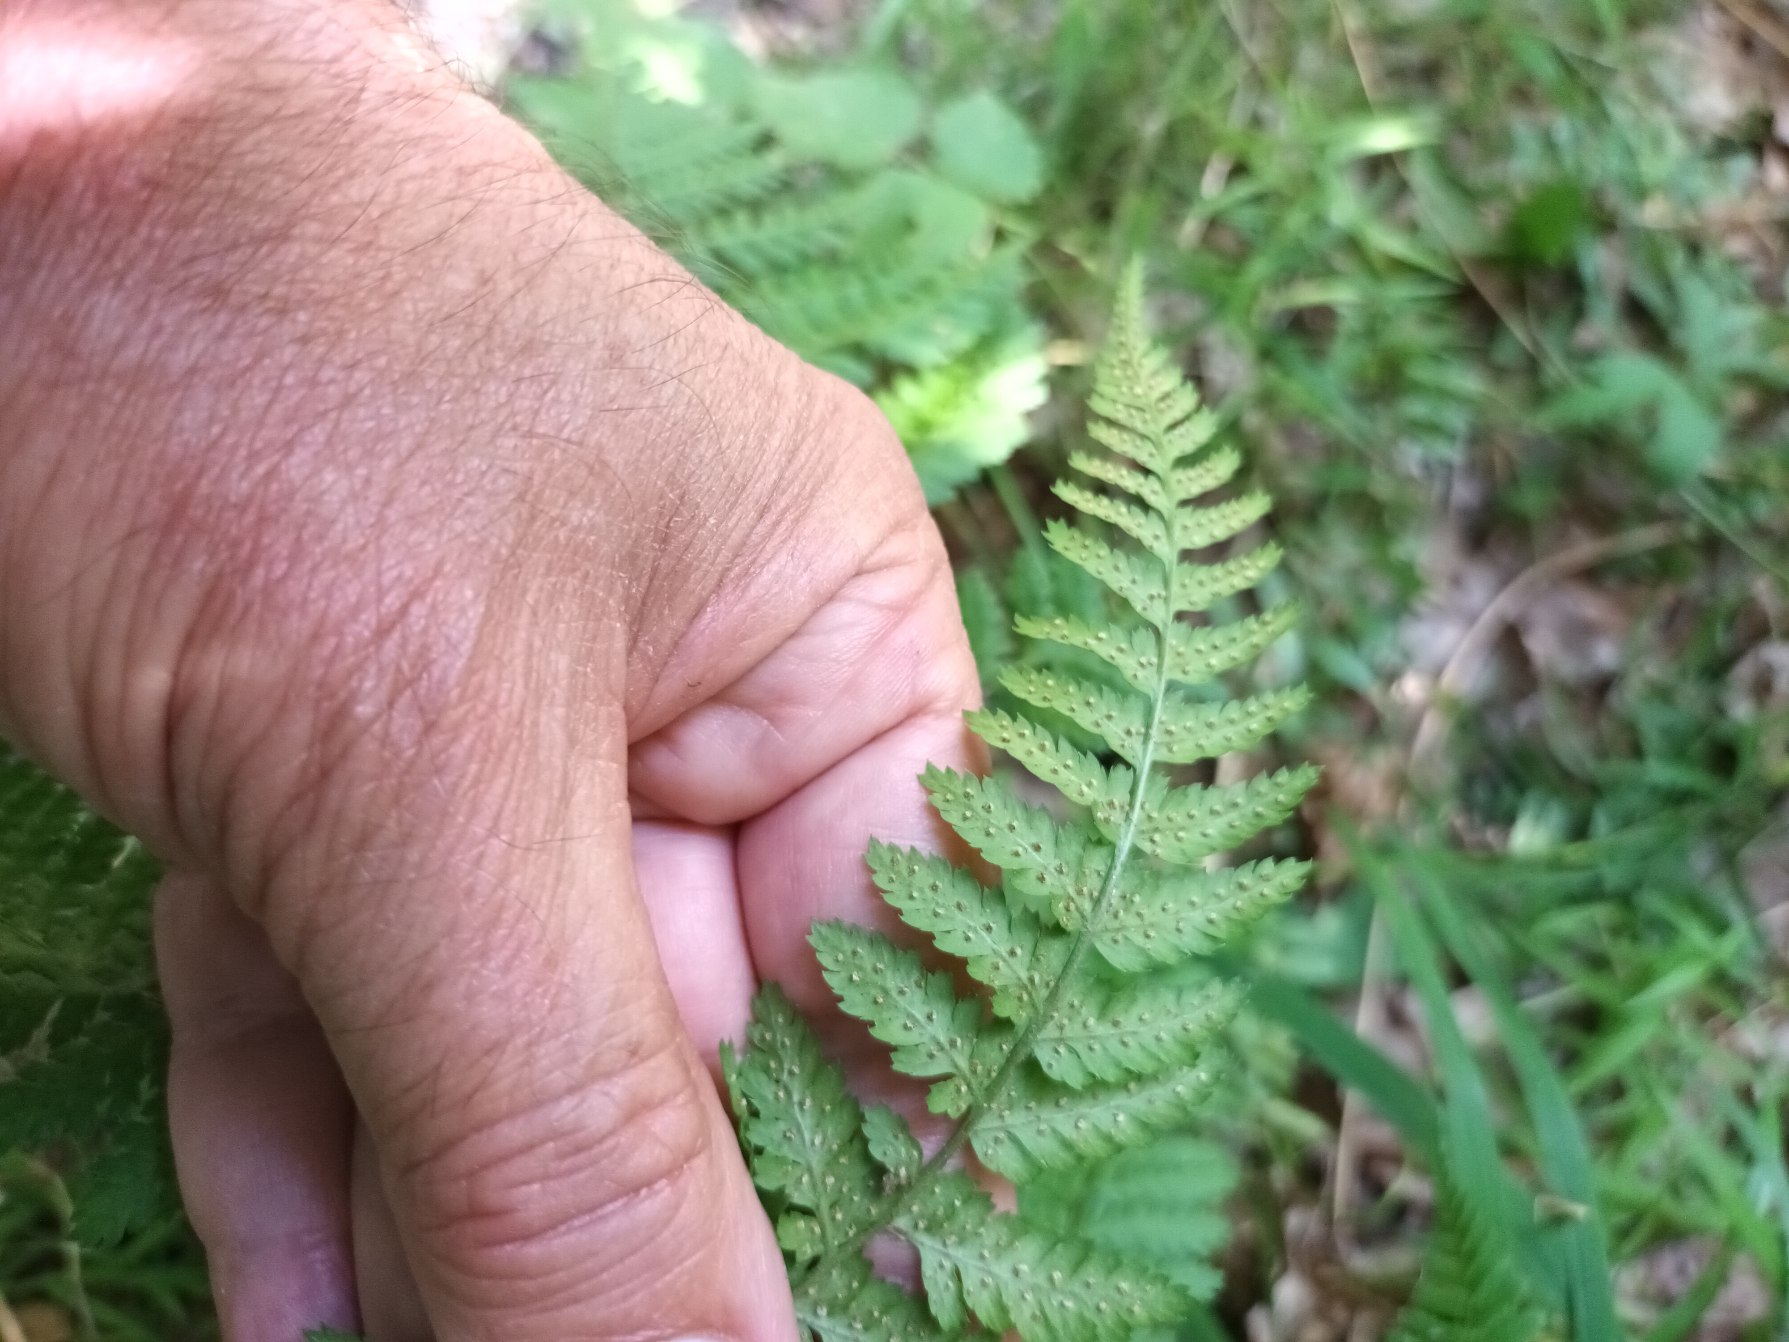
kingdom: Plantae
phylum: Tracheophyta
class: Polypodiopsida
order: Polypodiales
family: Dryopteridaceae
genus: Dryopteris
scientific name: Dryopteris dilatata
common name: Bredbladet mangeløv
